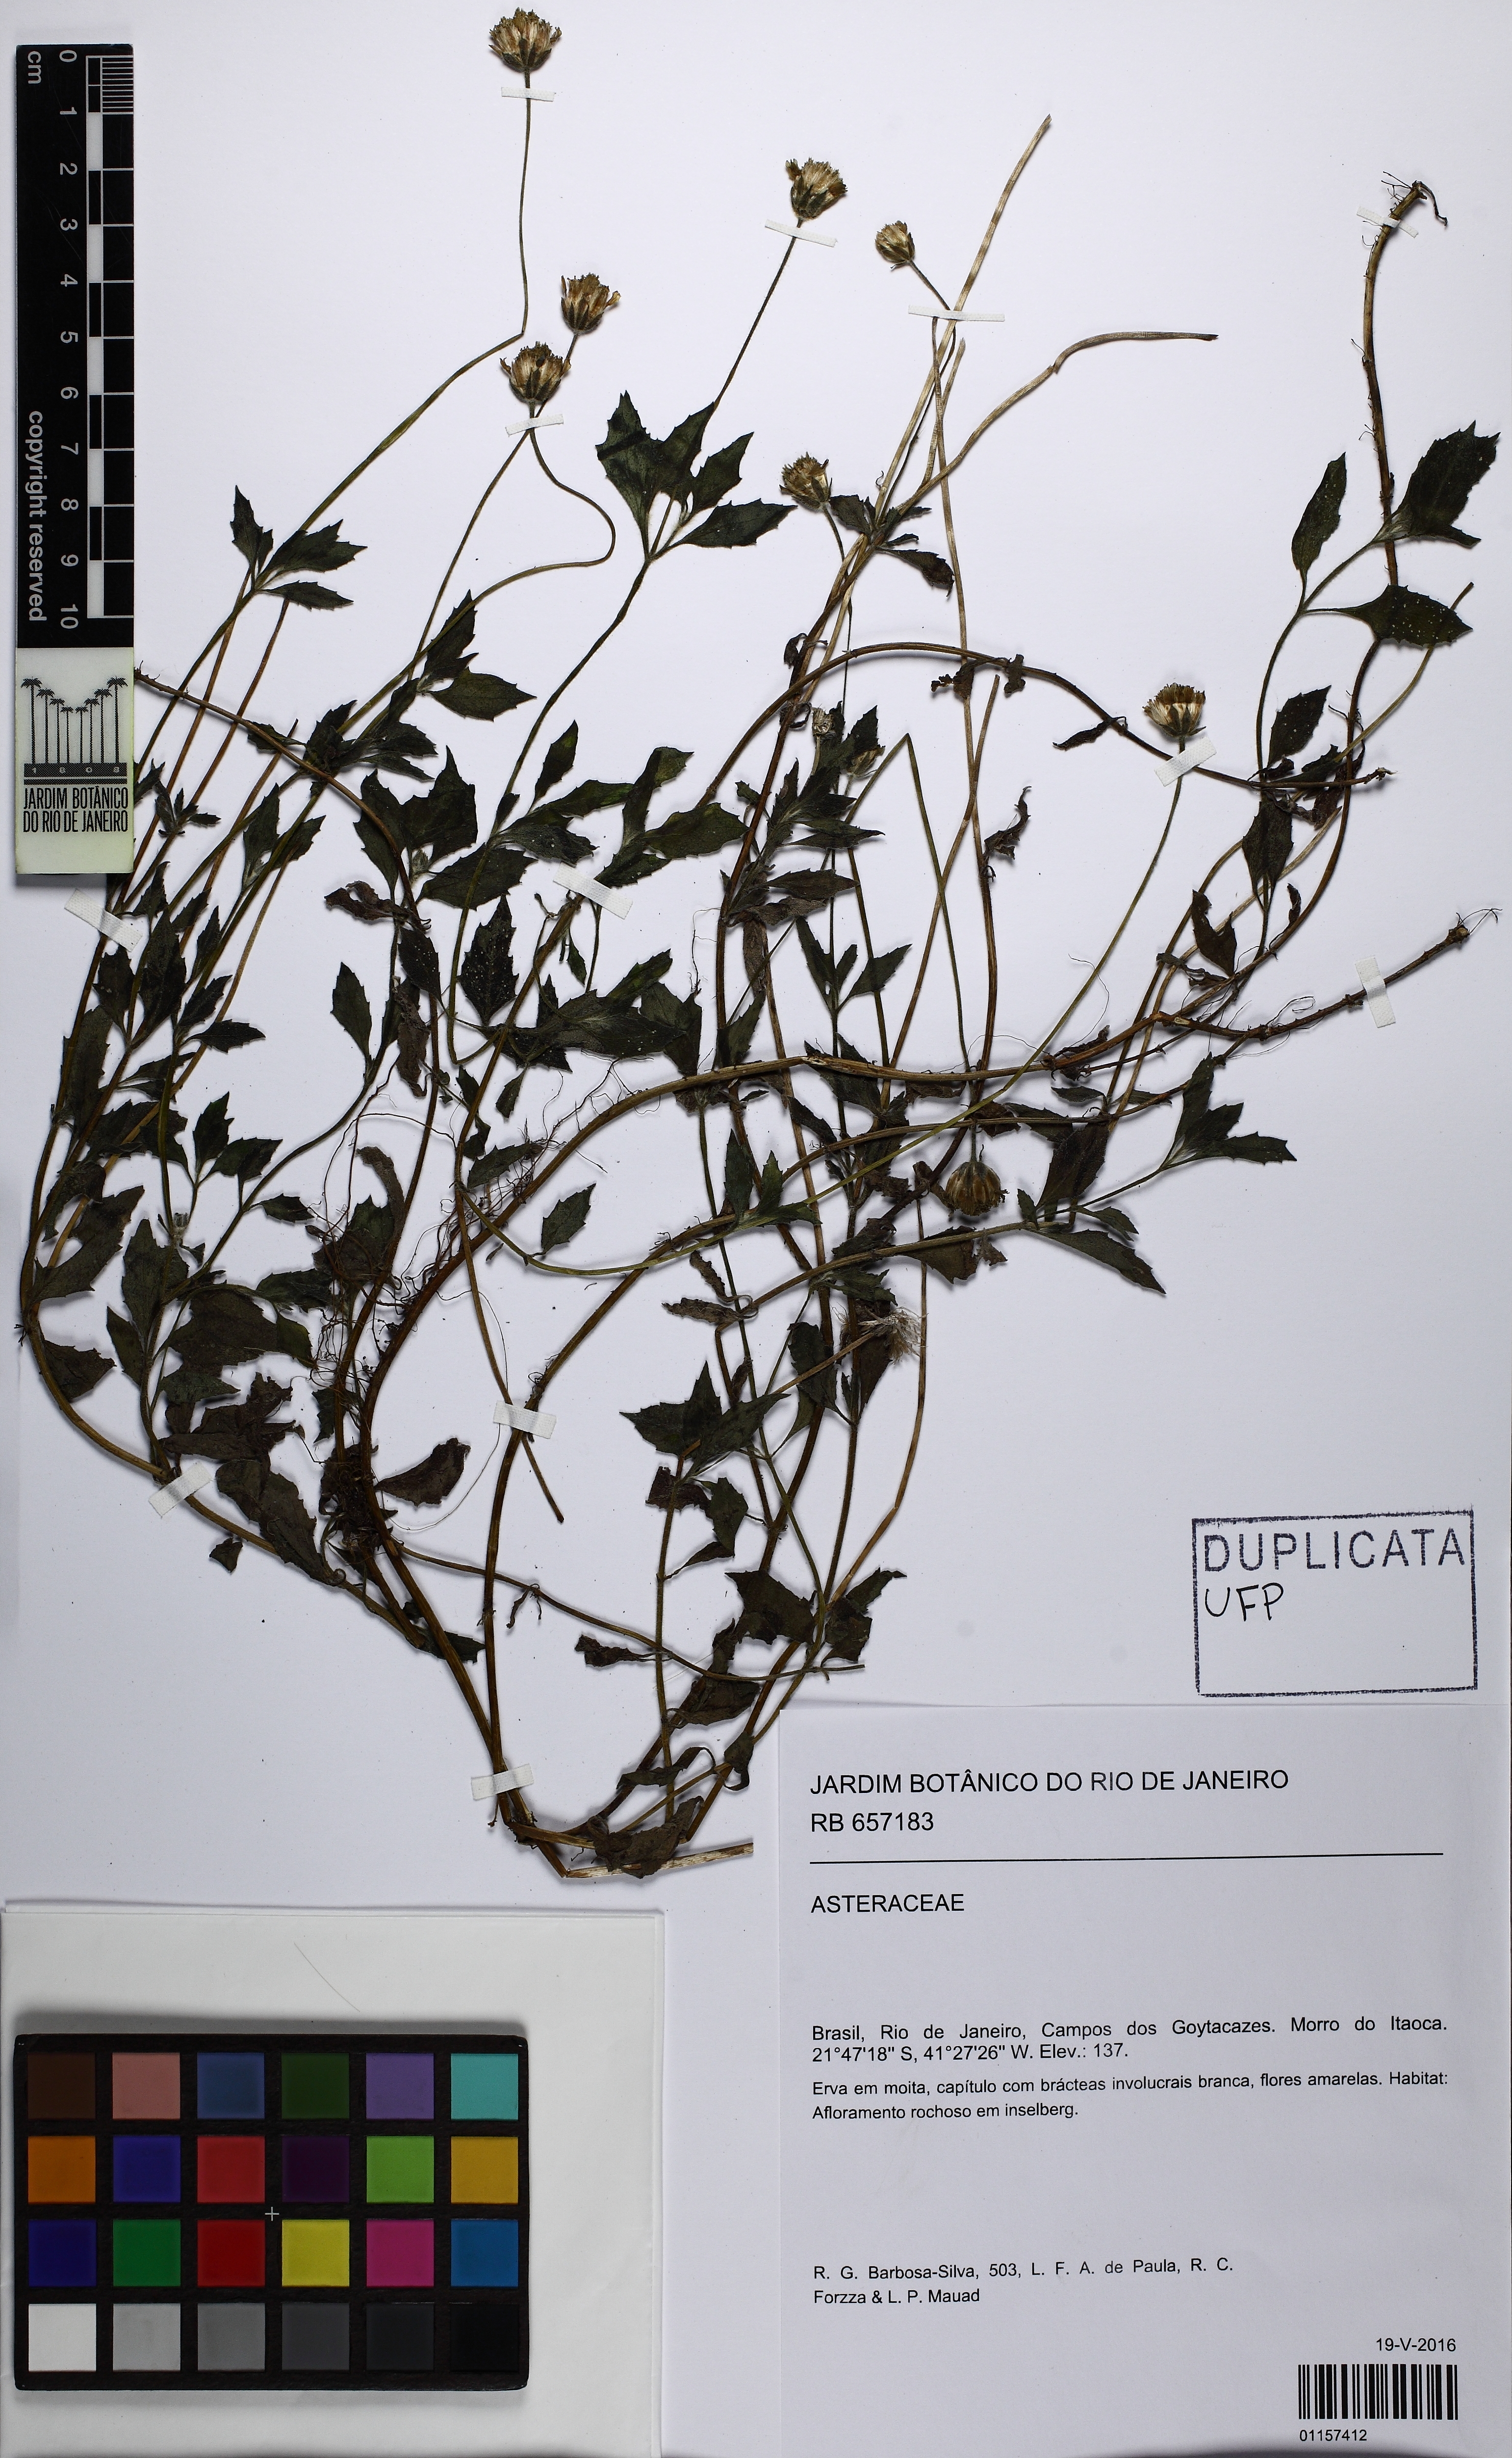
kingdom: Plantae
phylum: Tracheophyta
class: Magnoliopsida
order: Asterales
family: Asteraceae
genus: Tridax
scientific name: Tridax procumbens
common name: Coatbuttons
